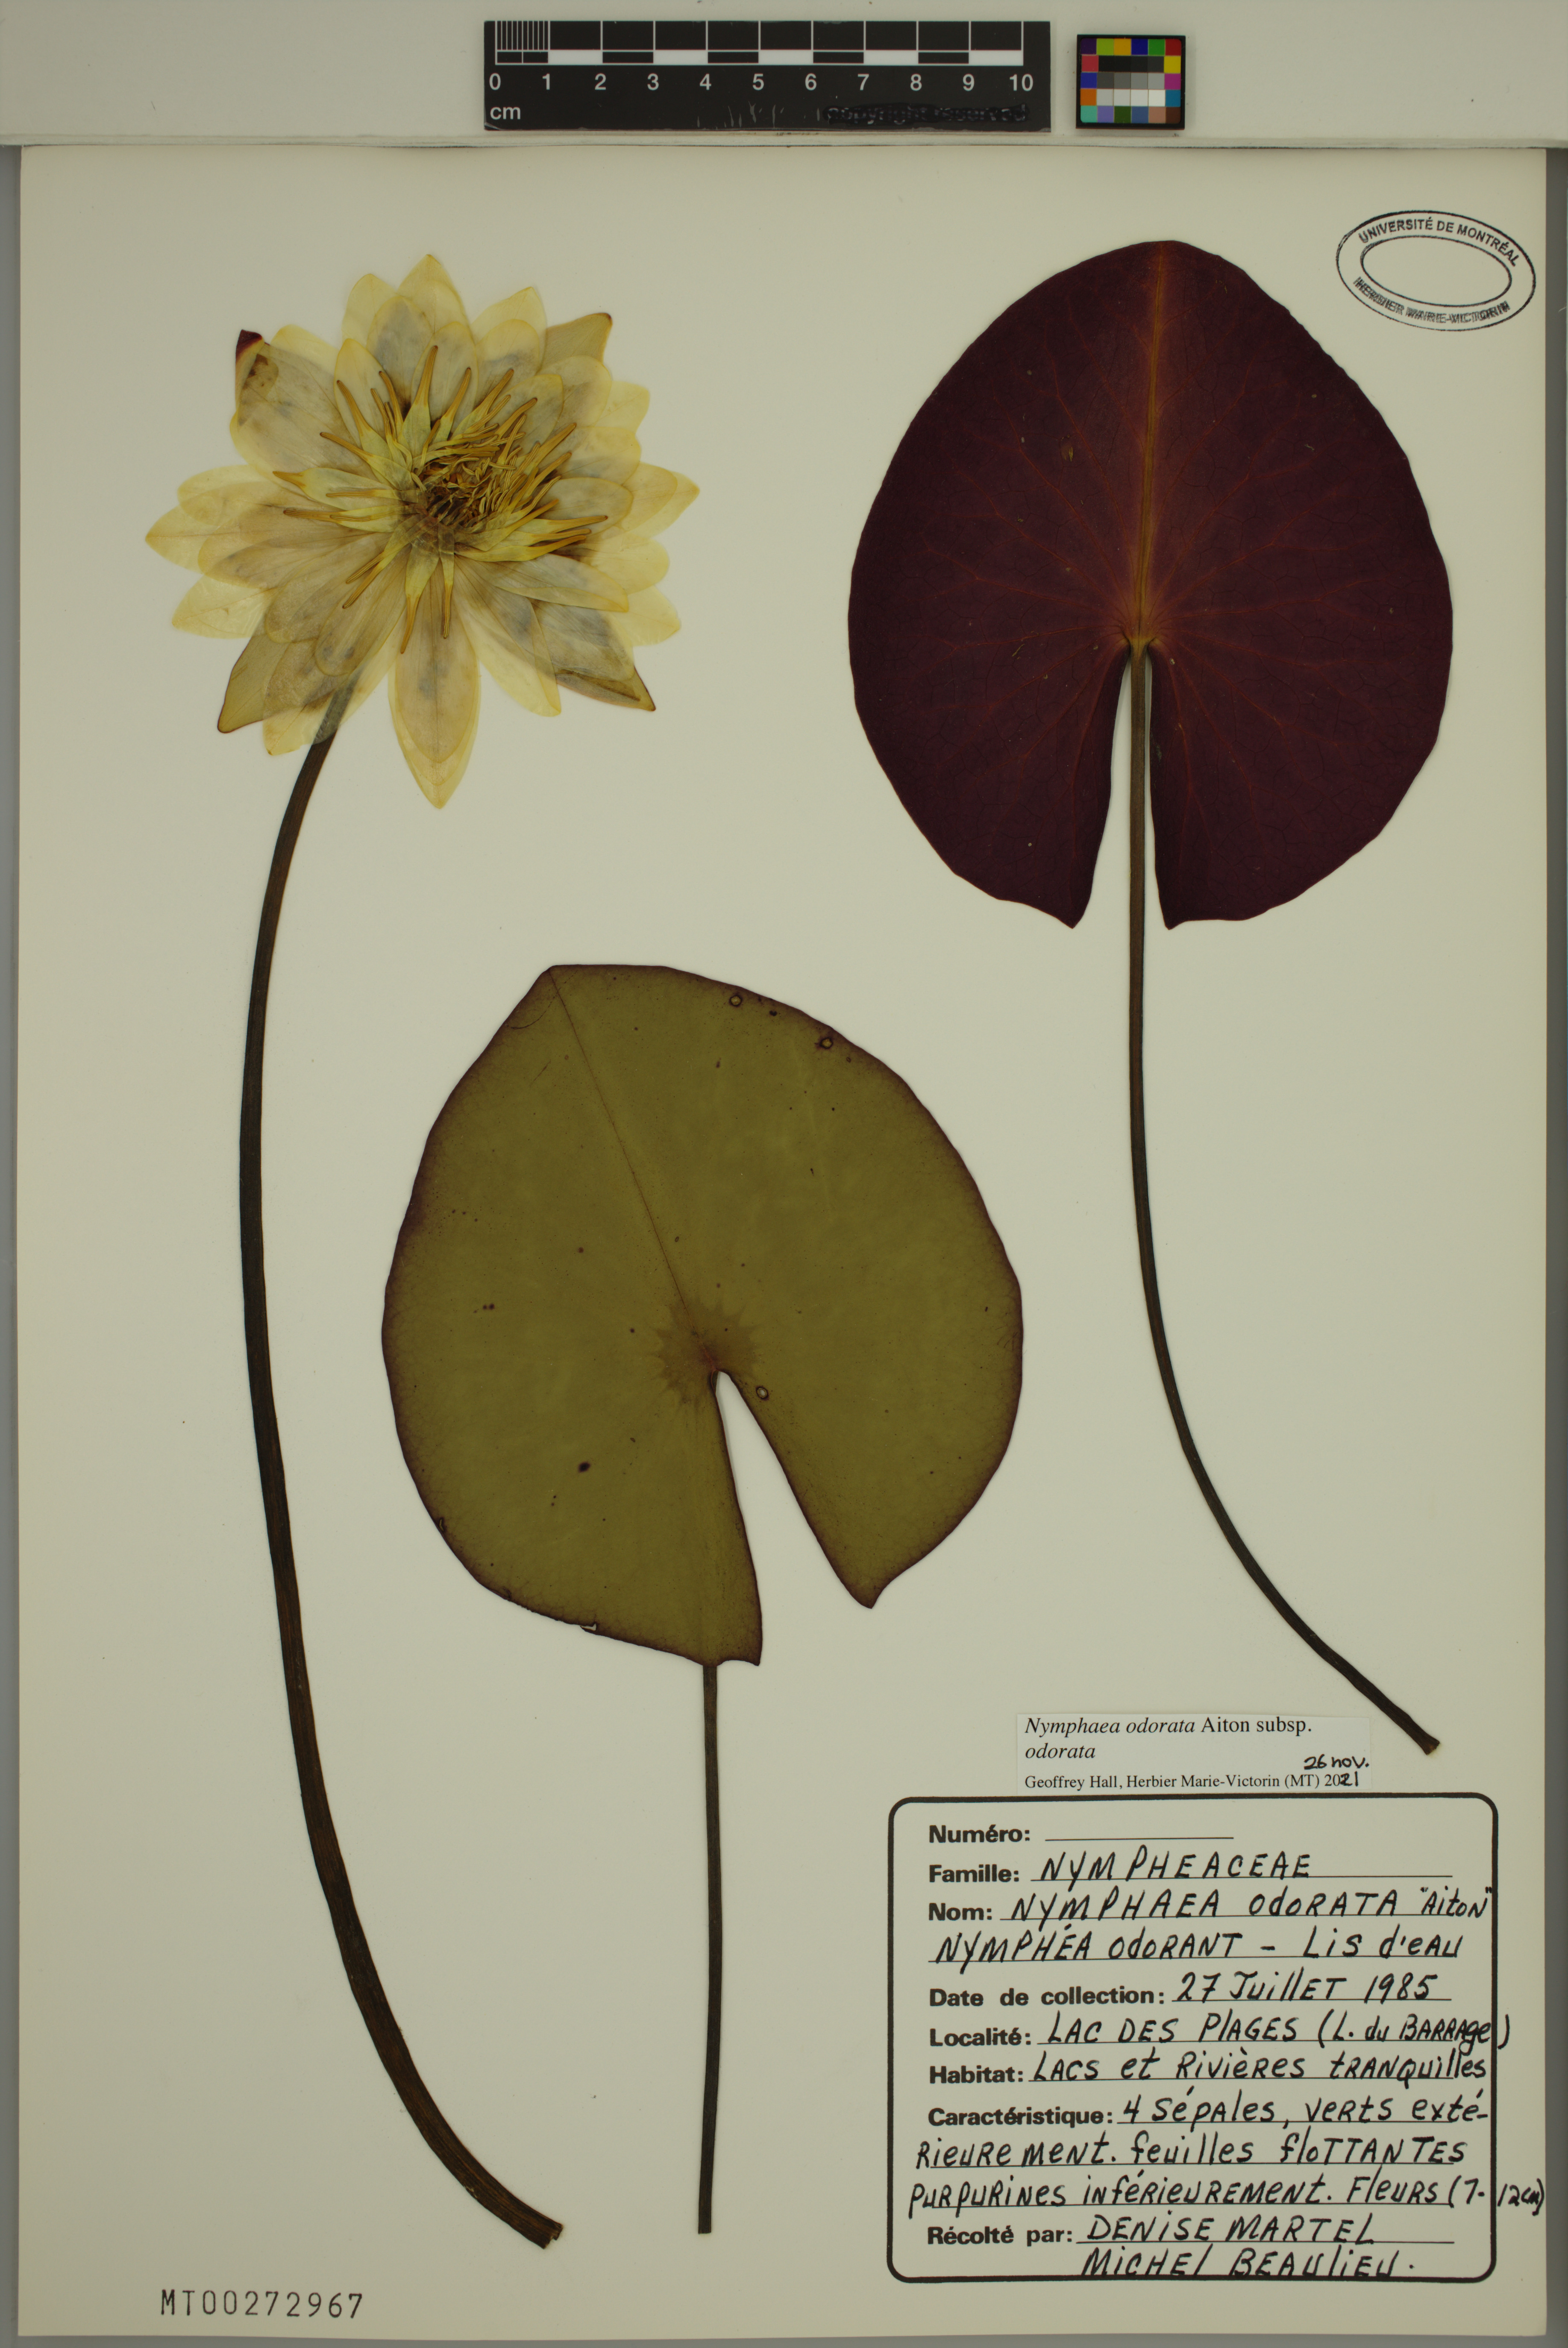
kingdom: Plantae
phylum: Tracheophyta
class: Magnoliopsida
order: Nymphaeales
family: Nymphaeaceae
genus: Nymphaea
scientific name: Nymphaea odorata
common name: Fragrant water-lily
